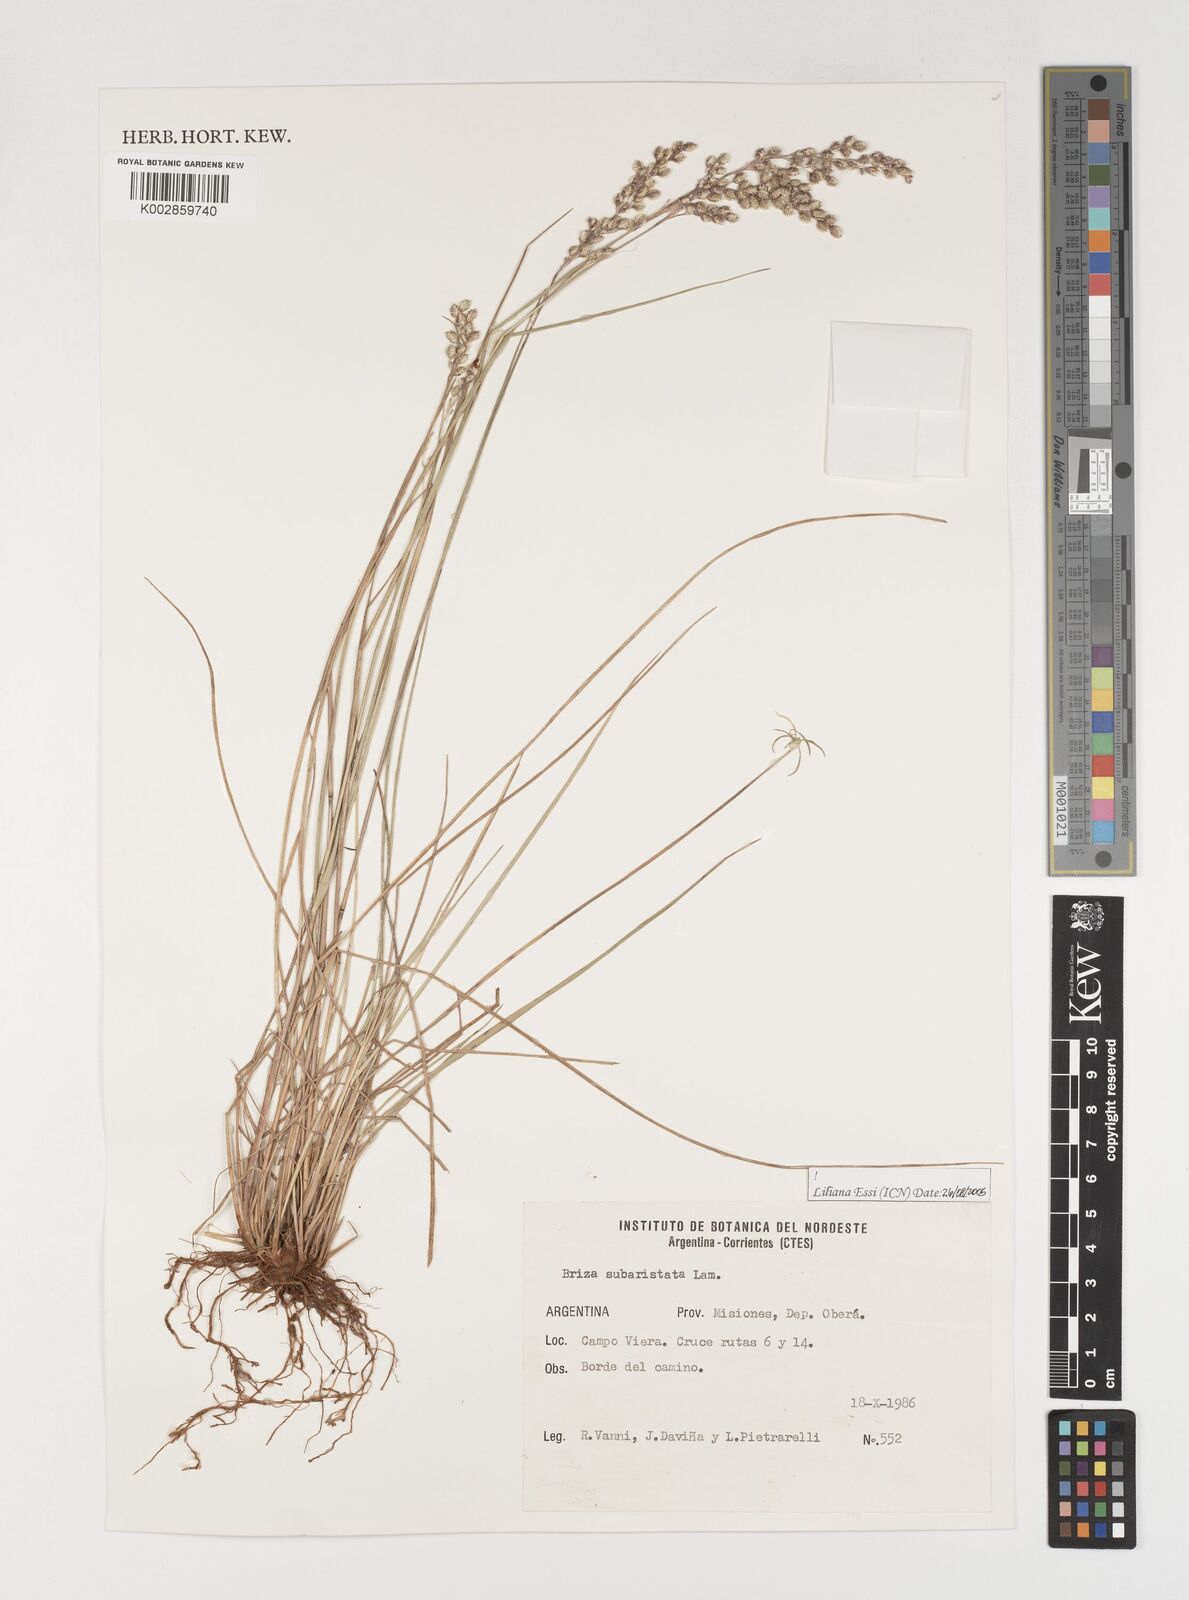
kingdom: Plantae
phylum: Tracheophyta
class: Liliopsida
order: Poales
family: Poaceae
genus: Chascolytrum
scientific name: Chascolytrum subaristatum
